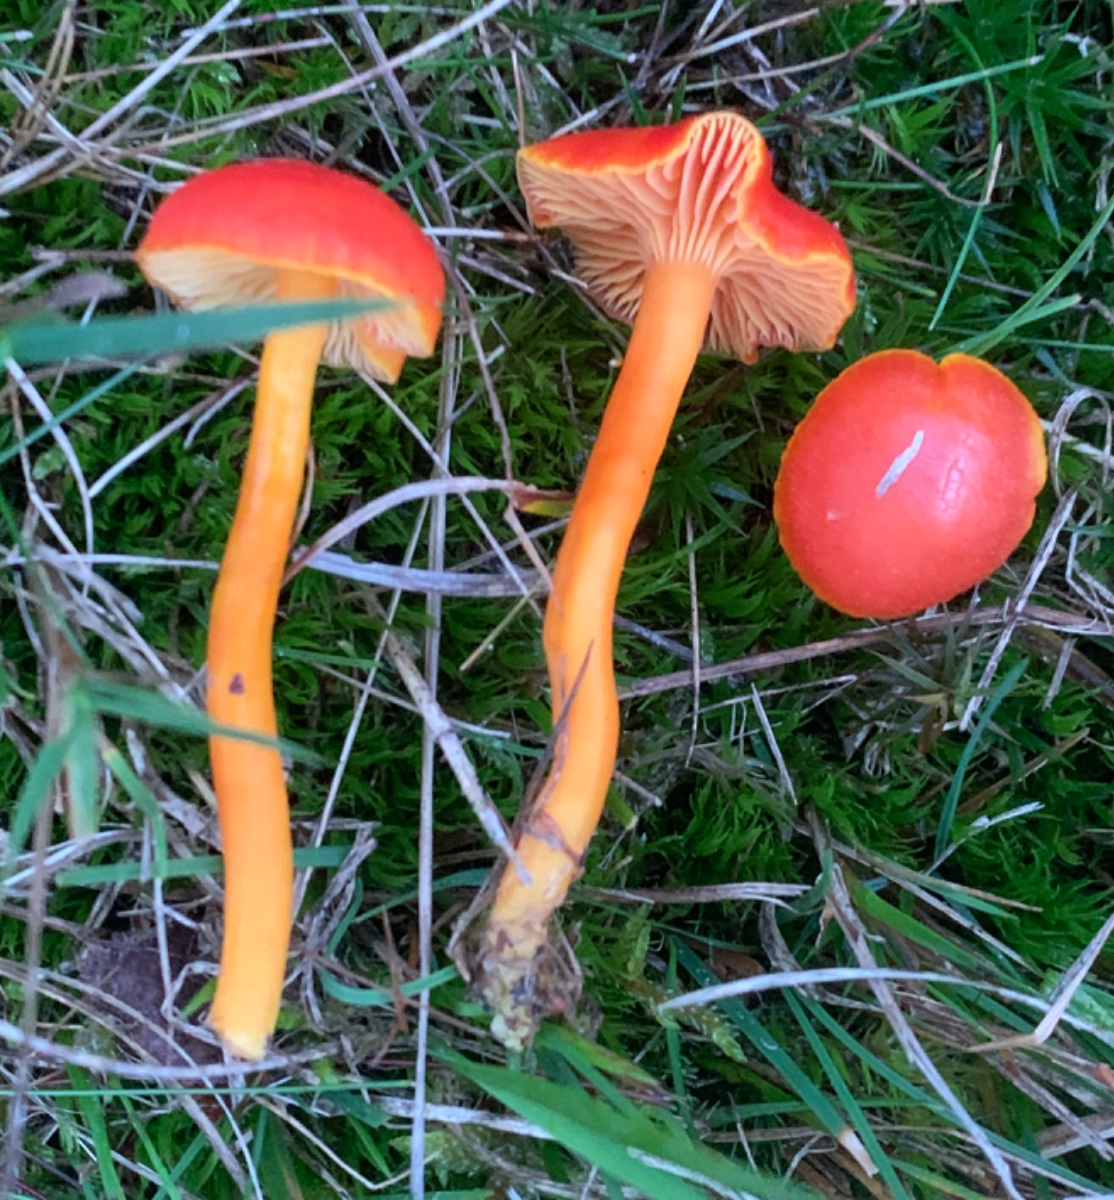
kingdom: Fungi
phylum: Basidiomycota
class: Agaricomycetes
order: Agaricales
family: Hygrophoraceae
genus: Hygrocybe
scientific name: Hygrocybe miniata
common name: mønje-vokshat
